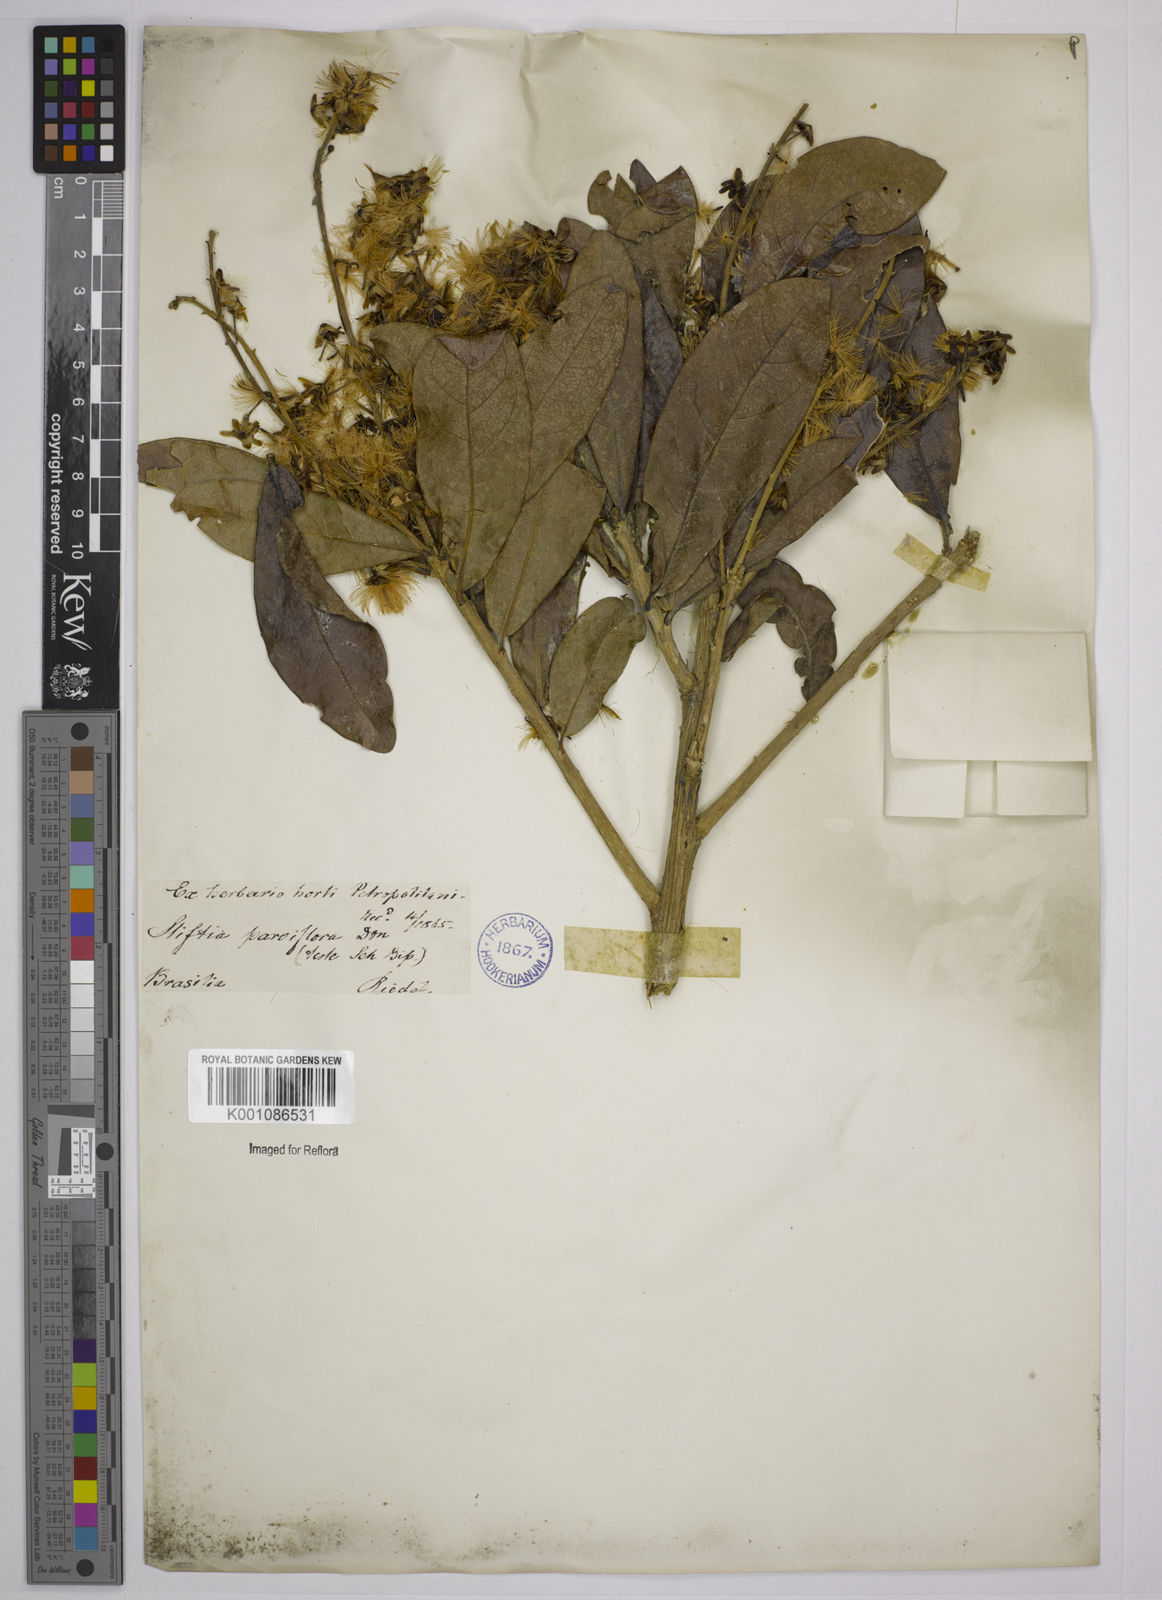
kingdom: Plantae
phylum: Tracheophyta
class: Magnoliopsida
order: Asterales
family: Asteraceae
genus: Stifftia
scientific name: Stifftia parviflora
